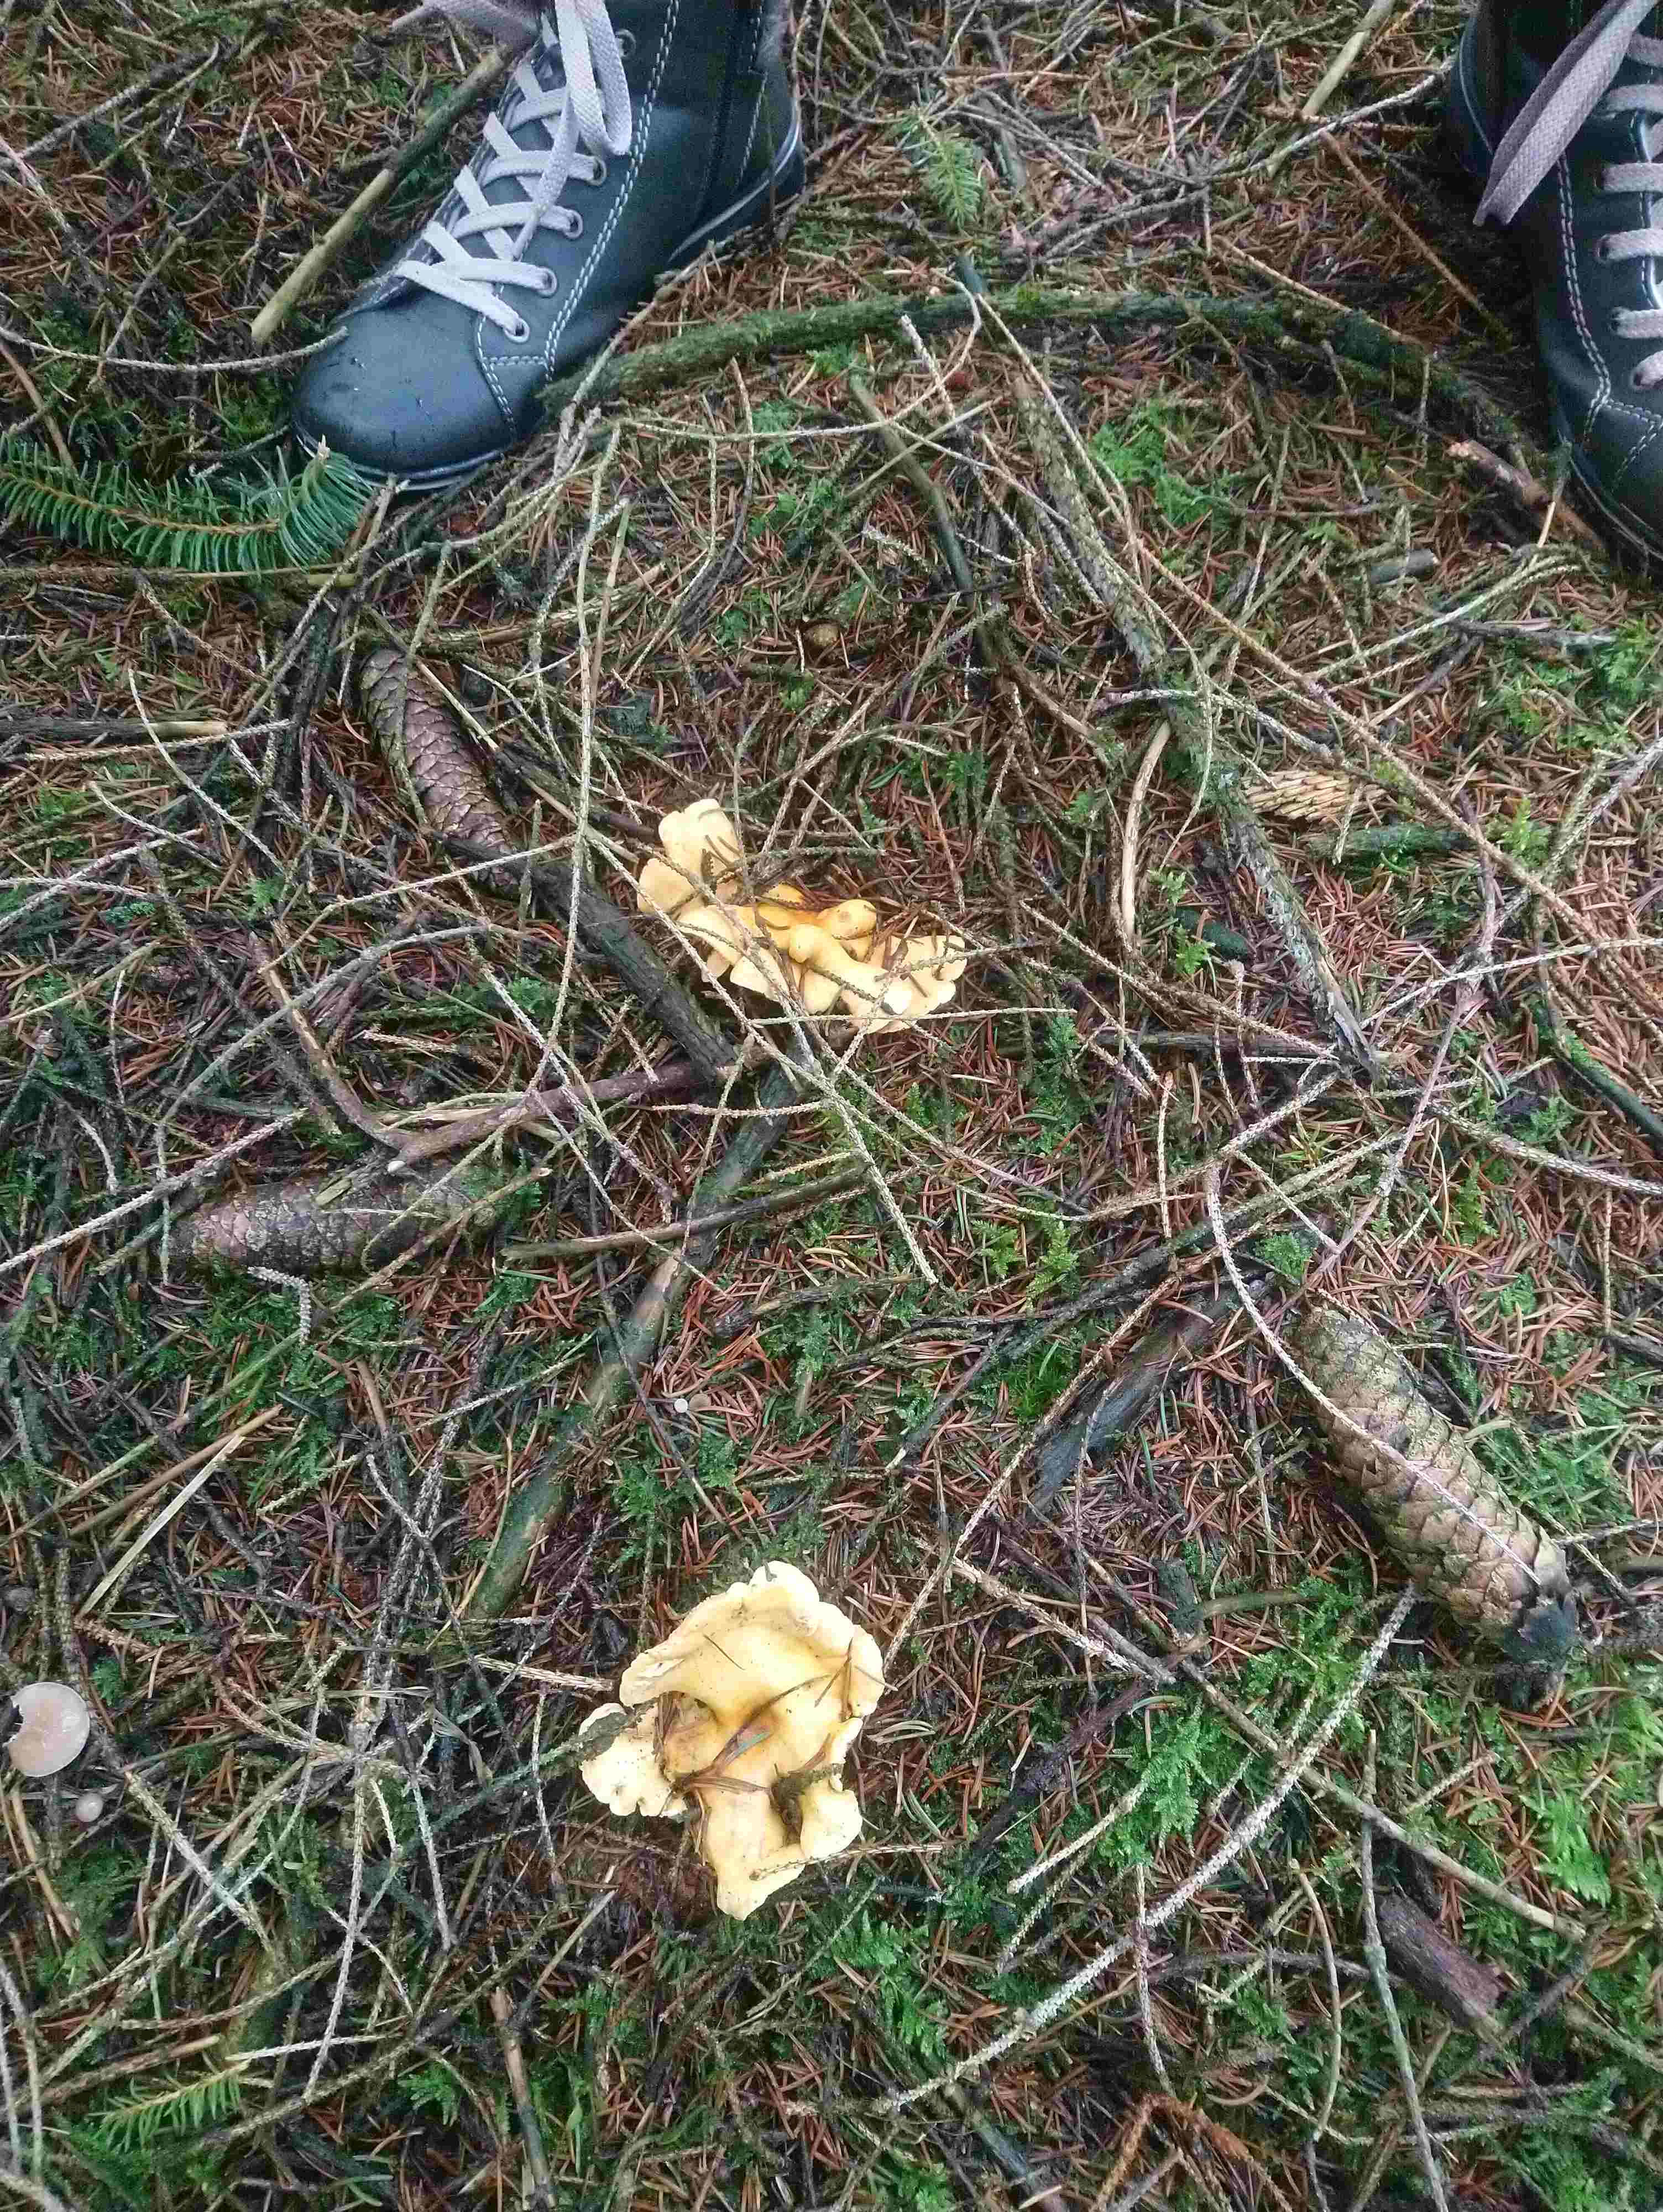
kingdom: Fungi
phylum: Basidiomycota
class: Agaricomycetes
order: Boletales
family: Hygrophoropsidaceae
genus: Hygrophoropsis
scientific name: Hygrophoropsis aurantiaca
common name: almindelig orangekantarel
